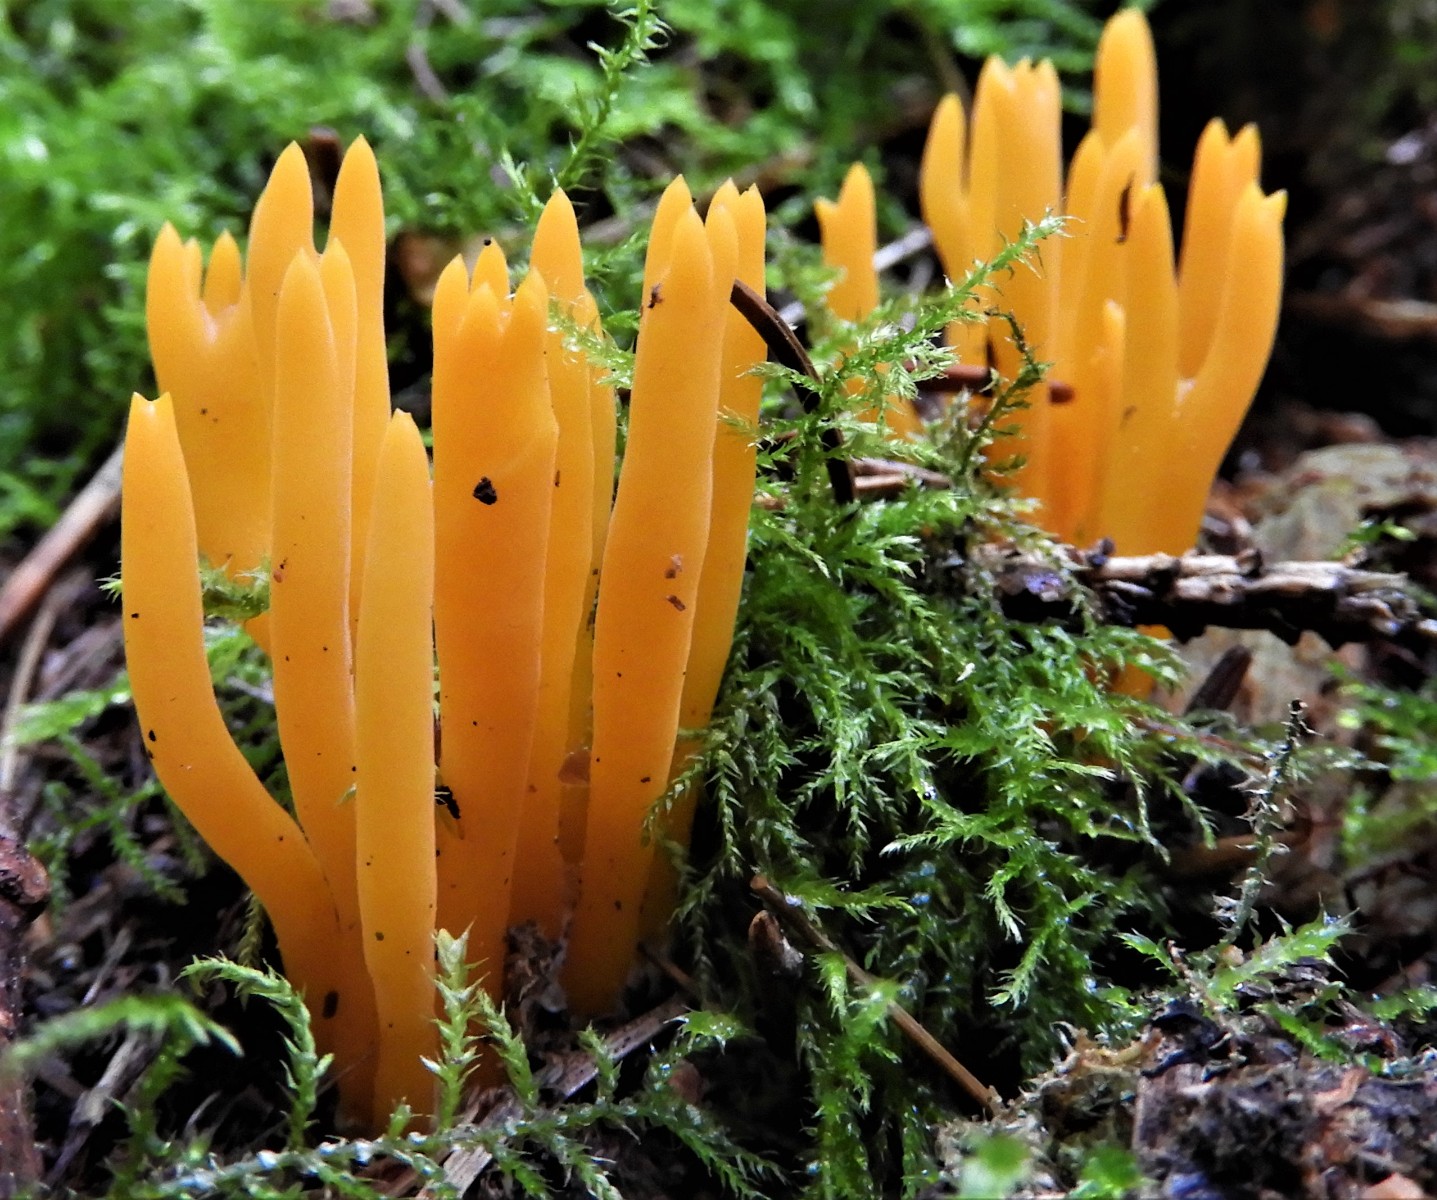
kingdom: Fungi
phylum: Basidiomycota
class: Dacrymycetes
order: Dacrymycetales
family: Dacrymycetaceae
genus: Calocera
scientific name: Calocera viscosa
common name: almindelig guldgaffel
